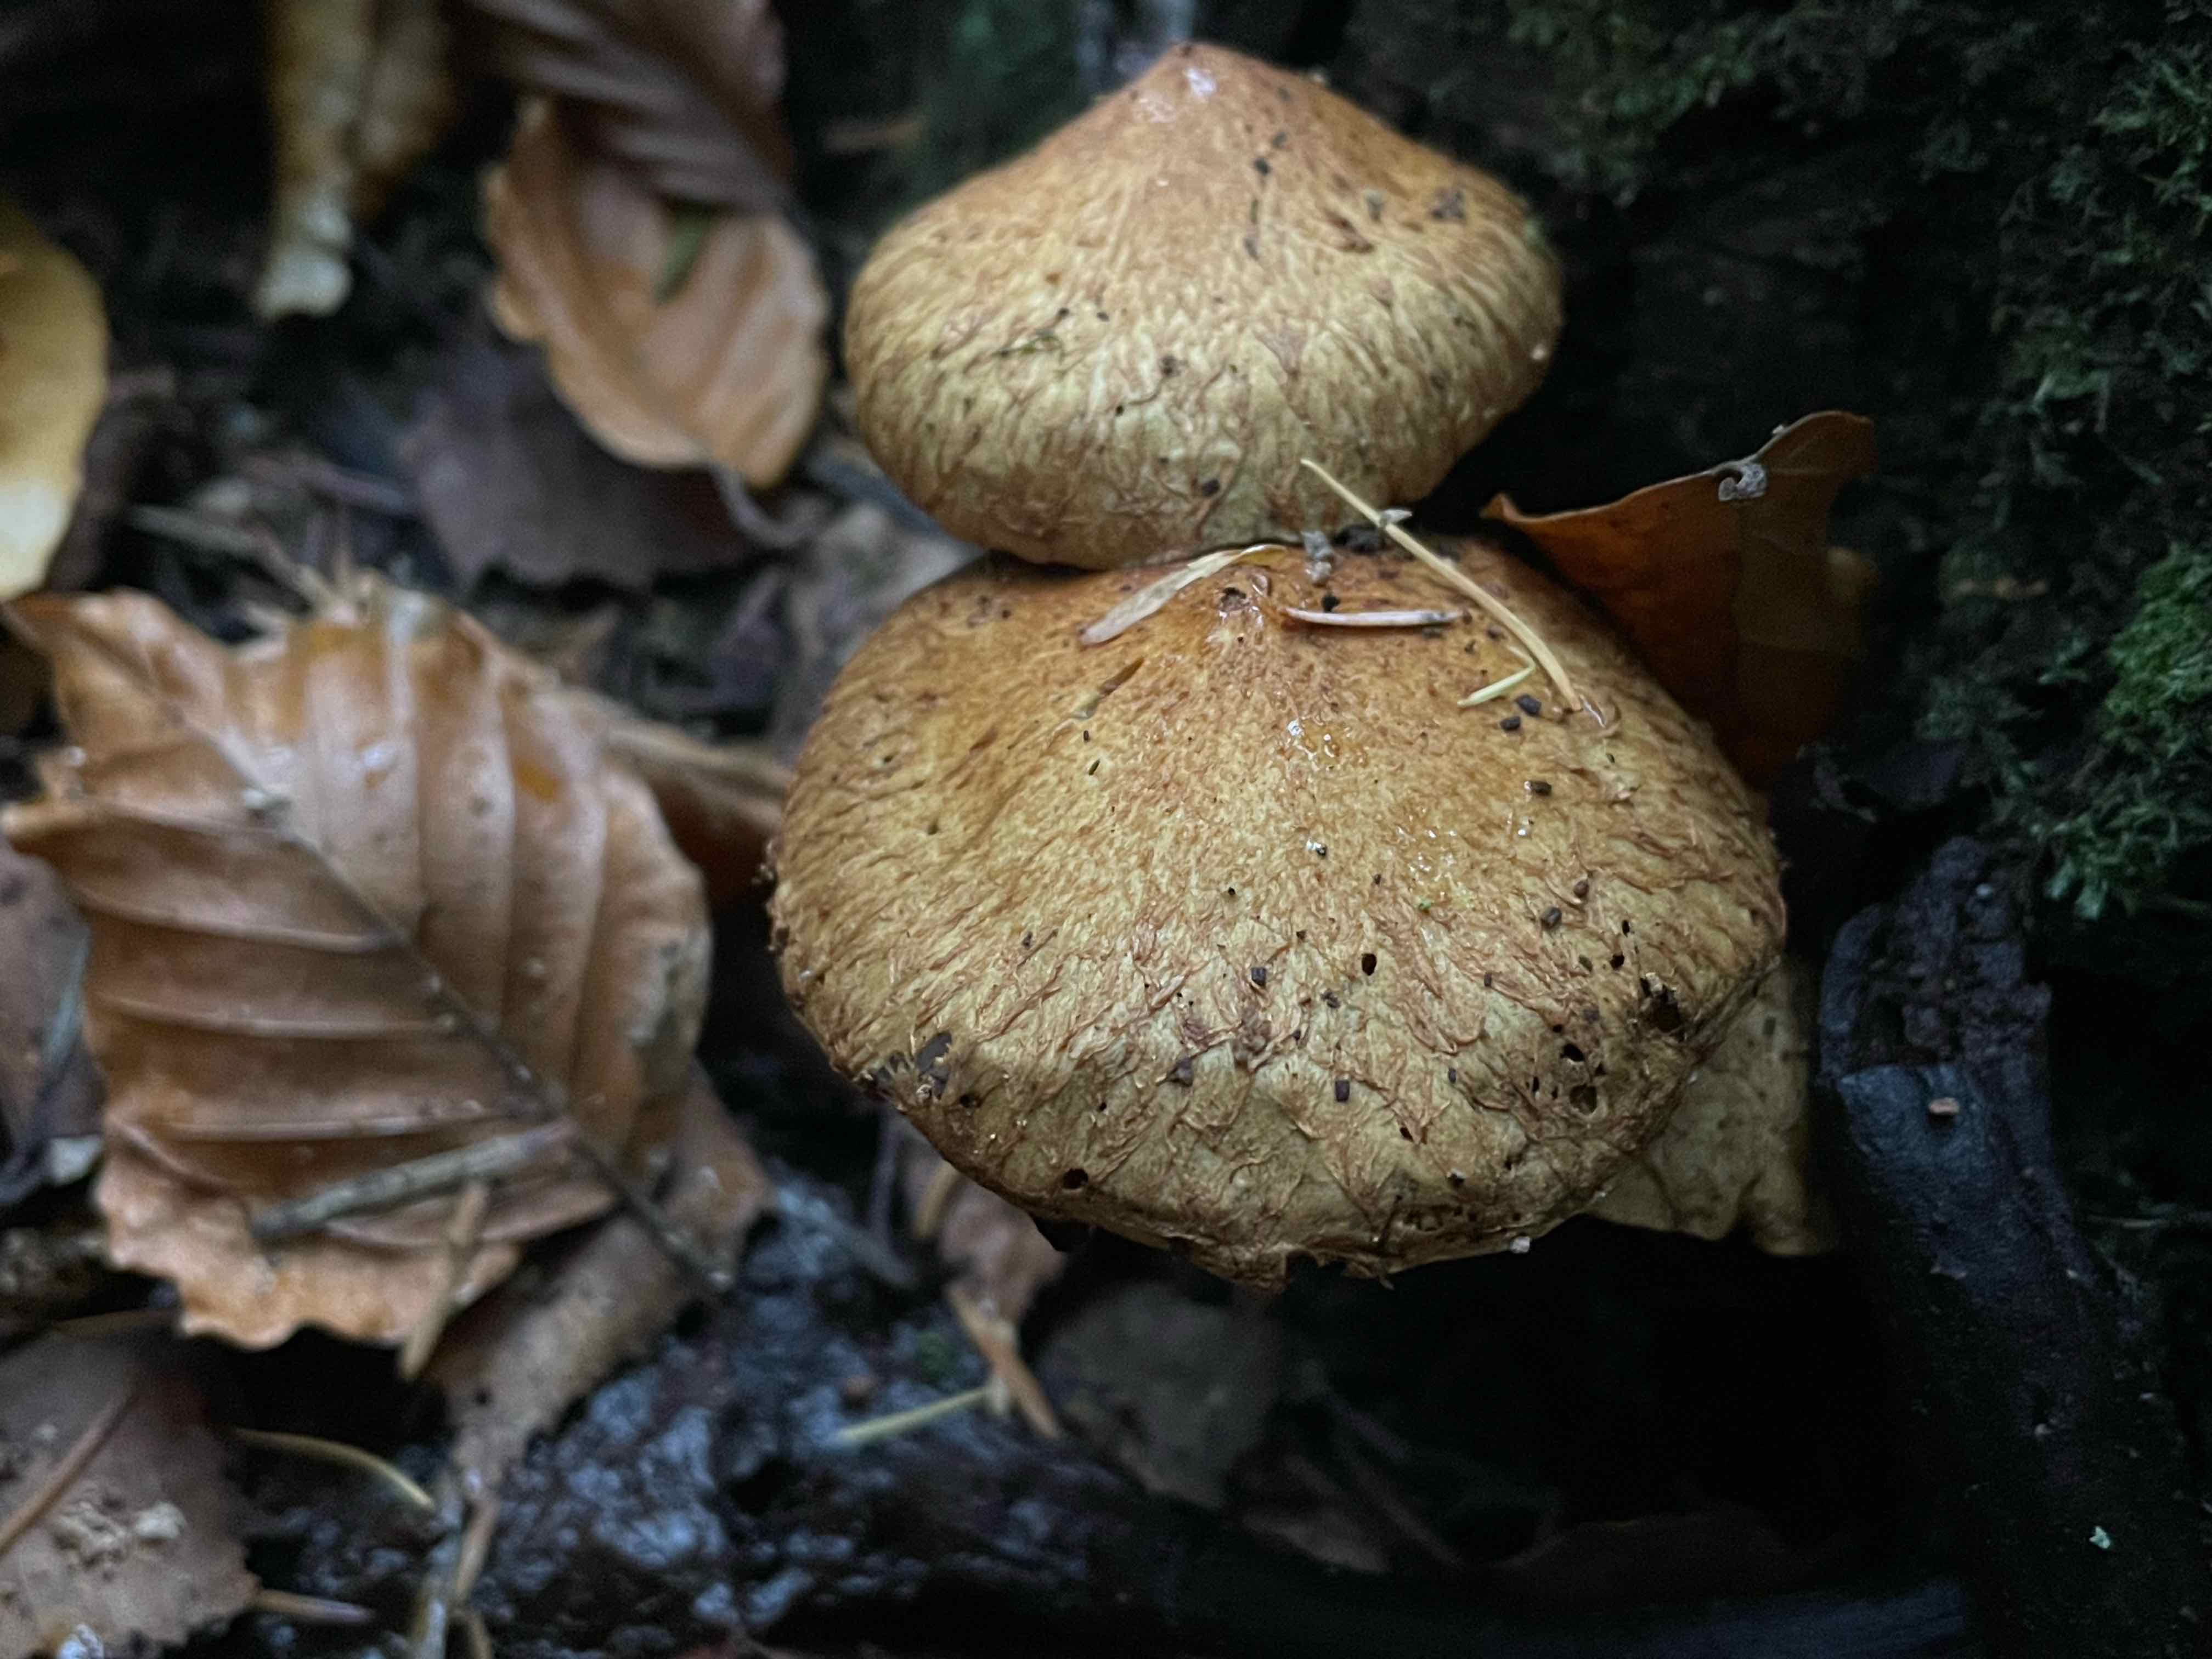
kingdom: Fungi
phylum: Basidiomycota
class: Agaricomycetes
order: Agaricales
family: Strophariaceae
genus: Pholiota
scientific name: Pholiota squarrosa
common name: krumskællet skælhat
